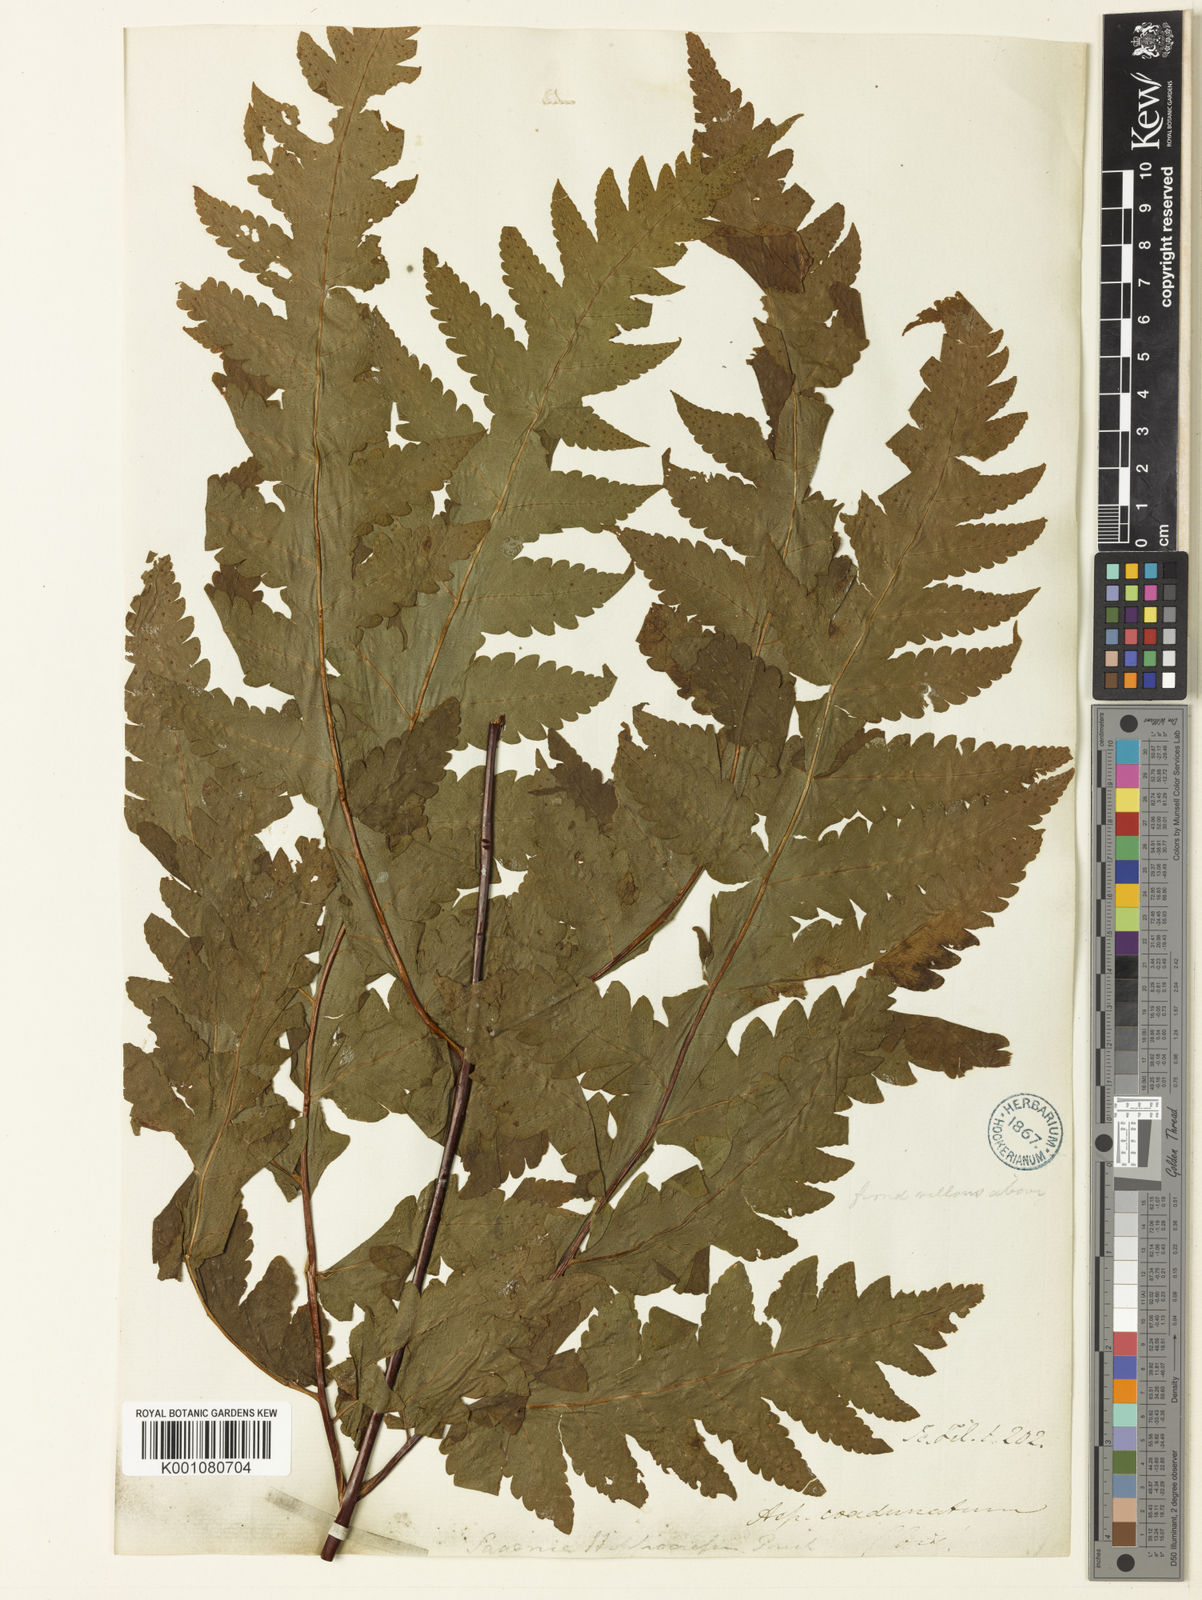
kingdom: Plantae
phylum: Tracheophyta
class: Polypodiopsida
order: Polypodiales
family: Tectariaceae
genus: Tectaria
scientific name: Tectaria coadunata
